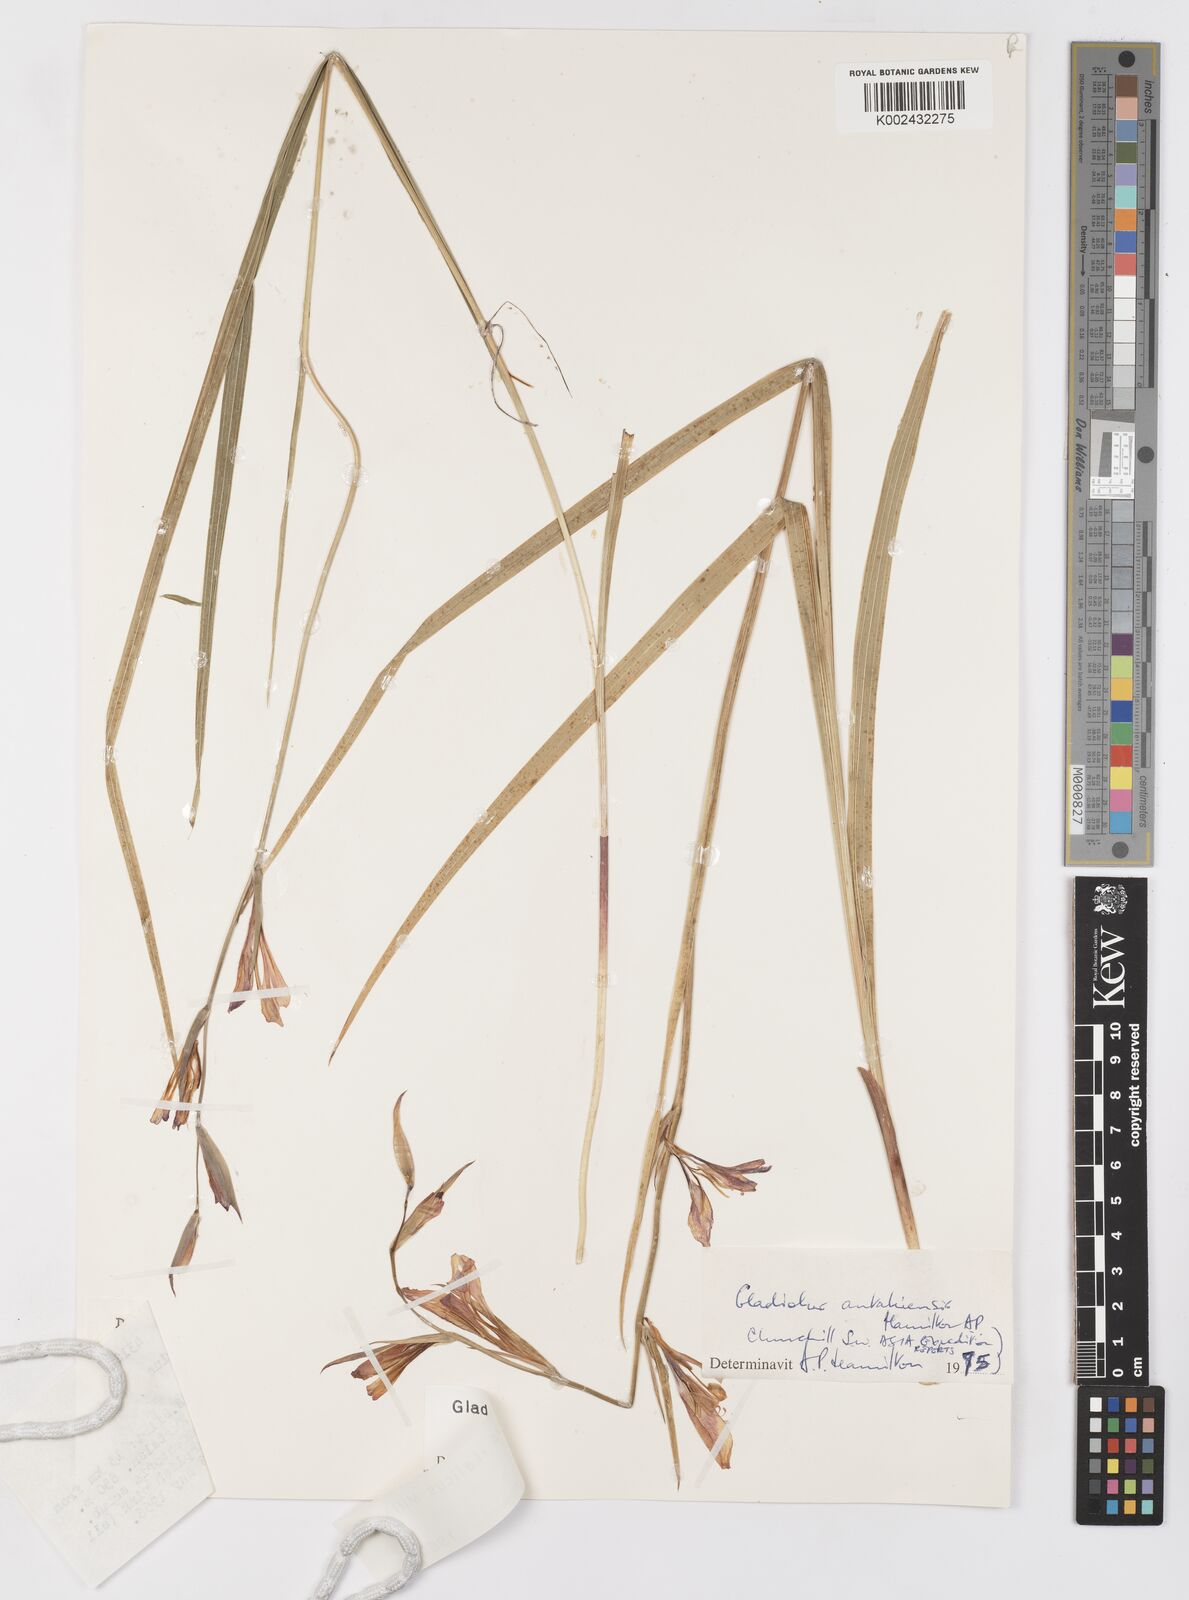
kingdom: Plantae
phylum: Tracheophyta
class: Liliopsida
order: Asparagales
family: Iridaceae
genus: Gladiolus
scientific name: Gladiolus antakiensis
